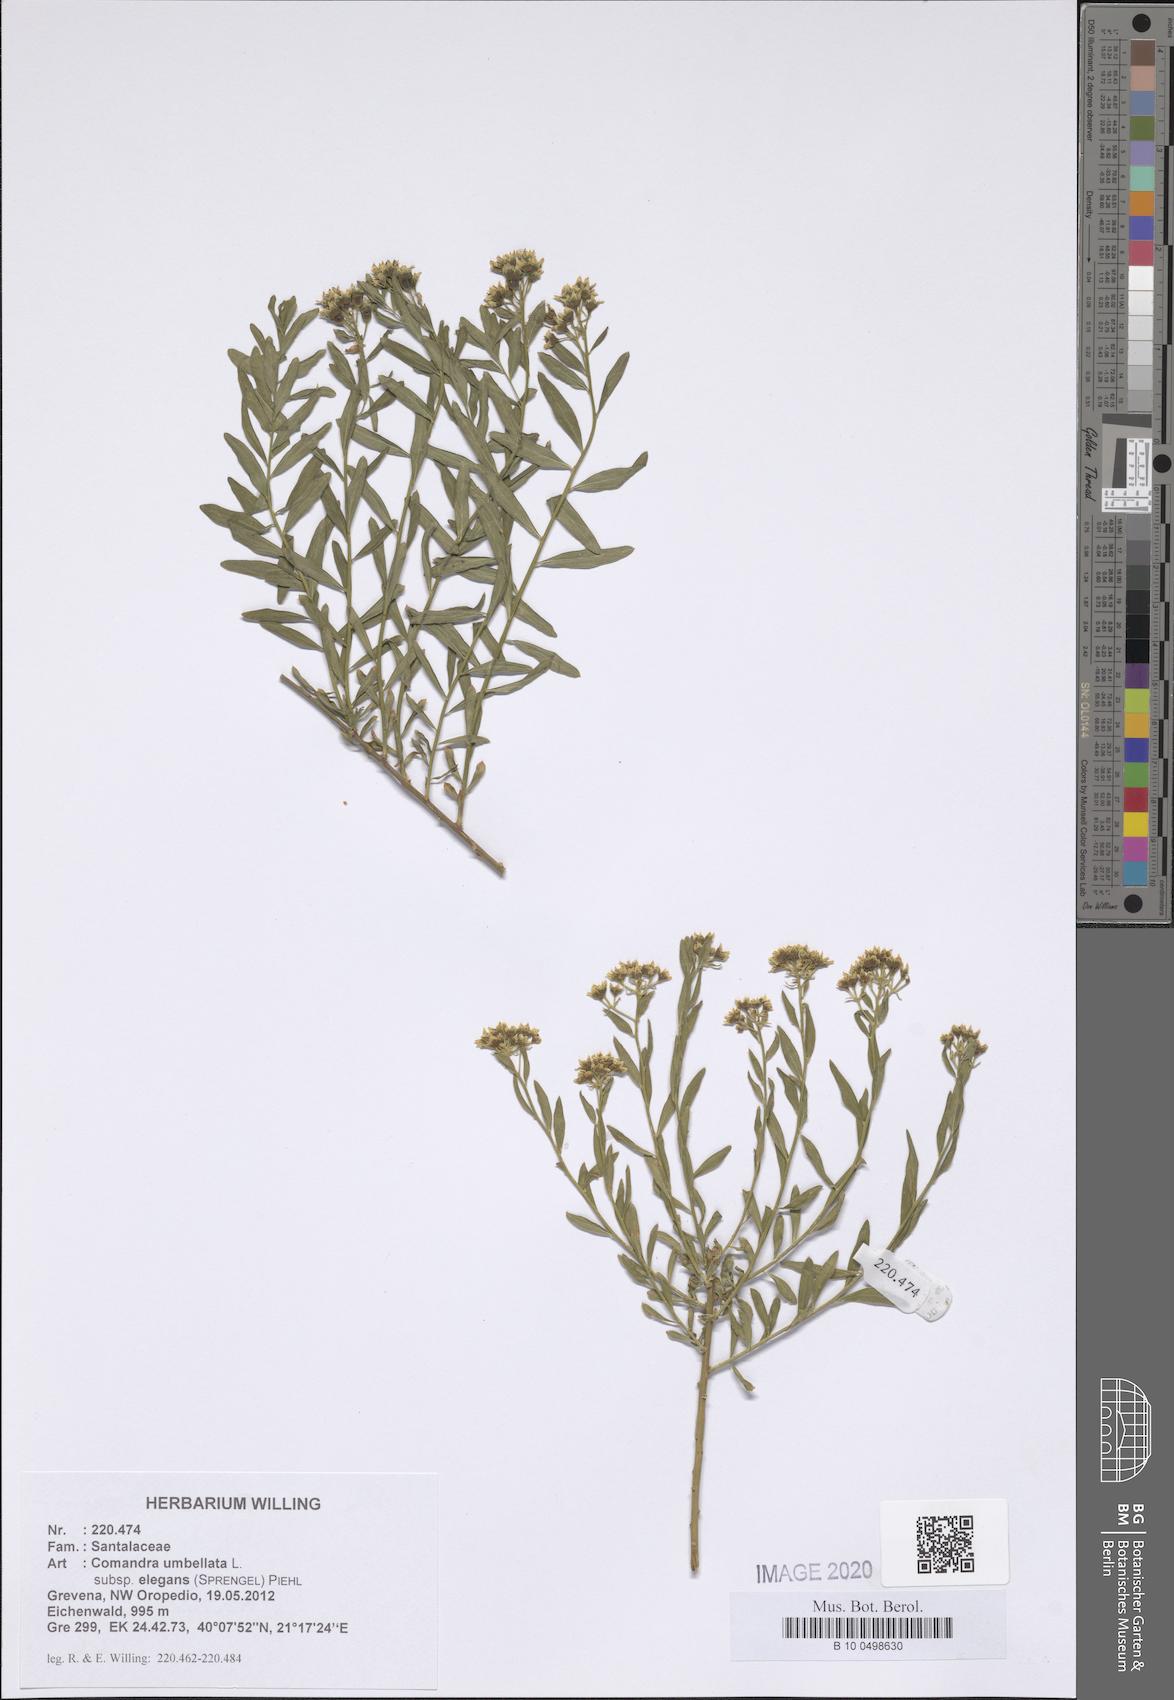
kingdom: Plantae
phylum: Tracheophyta
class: Magnoliopsida
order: Santalales
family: Comandraceae
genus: Comandra
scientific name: Comandra umbellata
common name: Bastard toadflax
